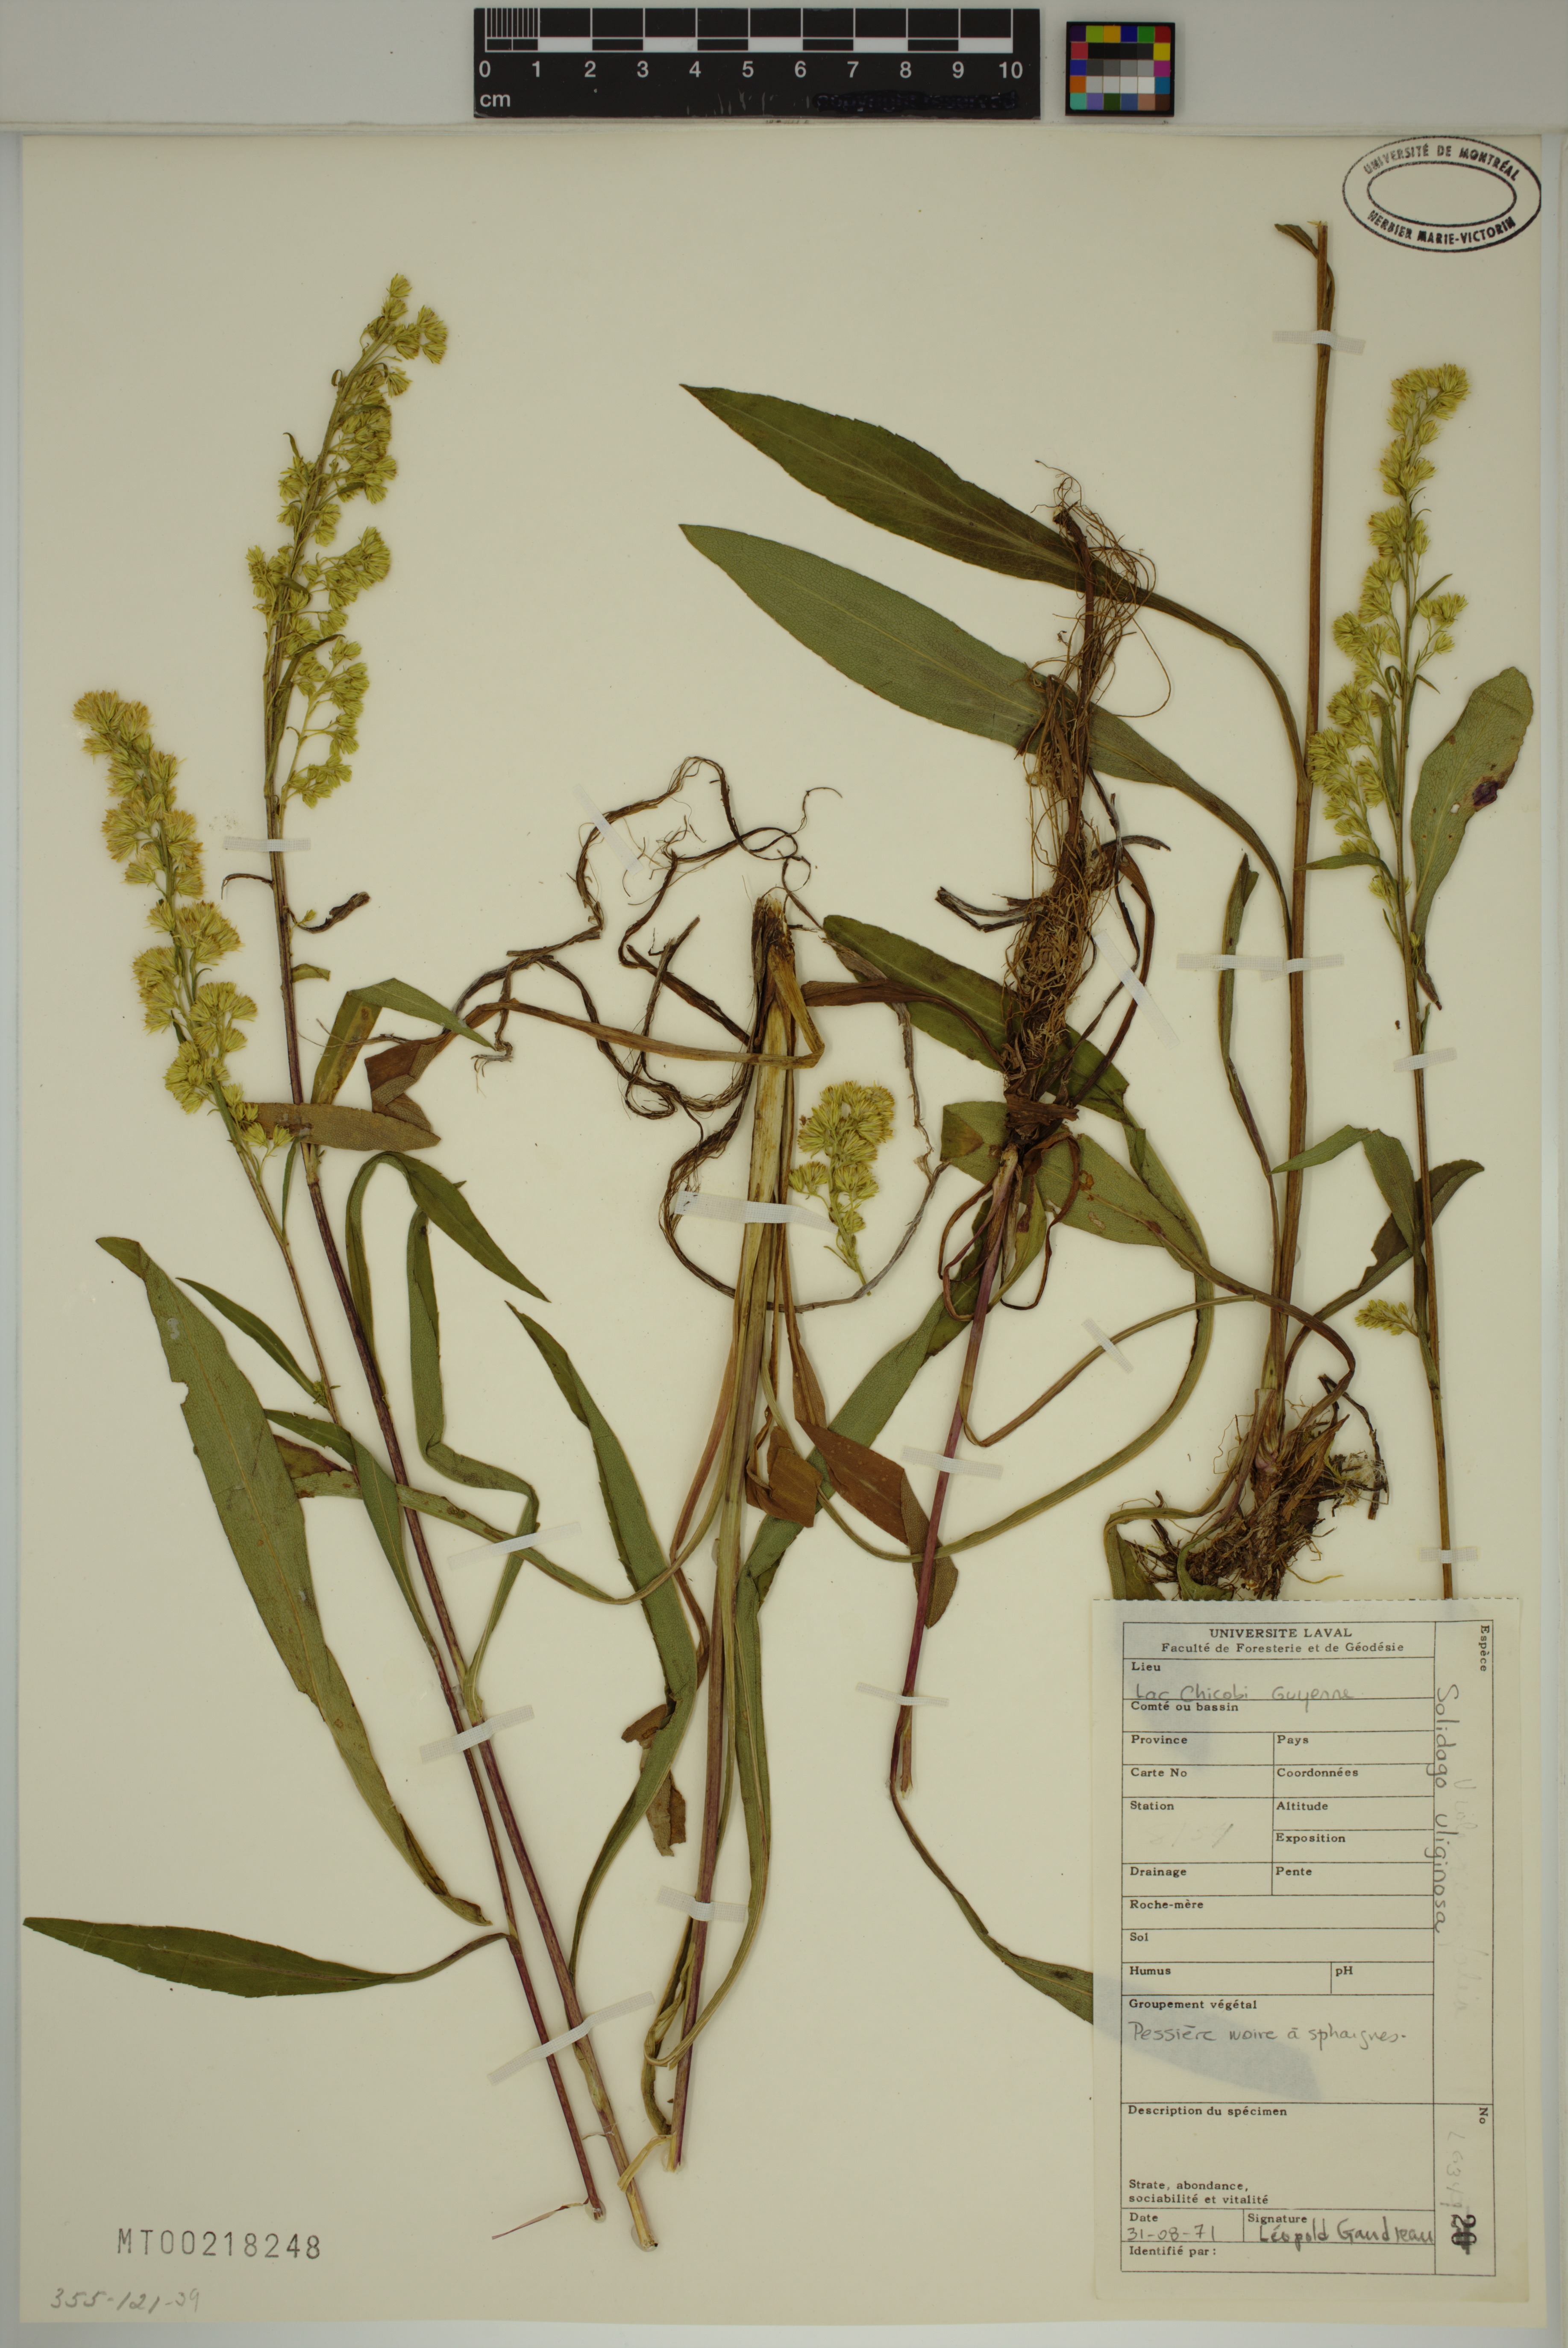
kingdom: Plantae
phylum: Tracheophyta
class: Magnoliopsida
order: Asterales
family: Asteraceae
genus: Solidago
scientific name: Solidago uliginosa
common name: Bog goldenrod
